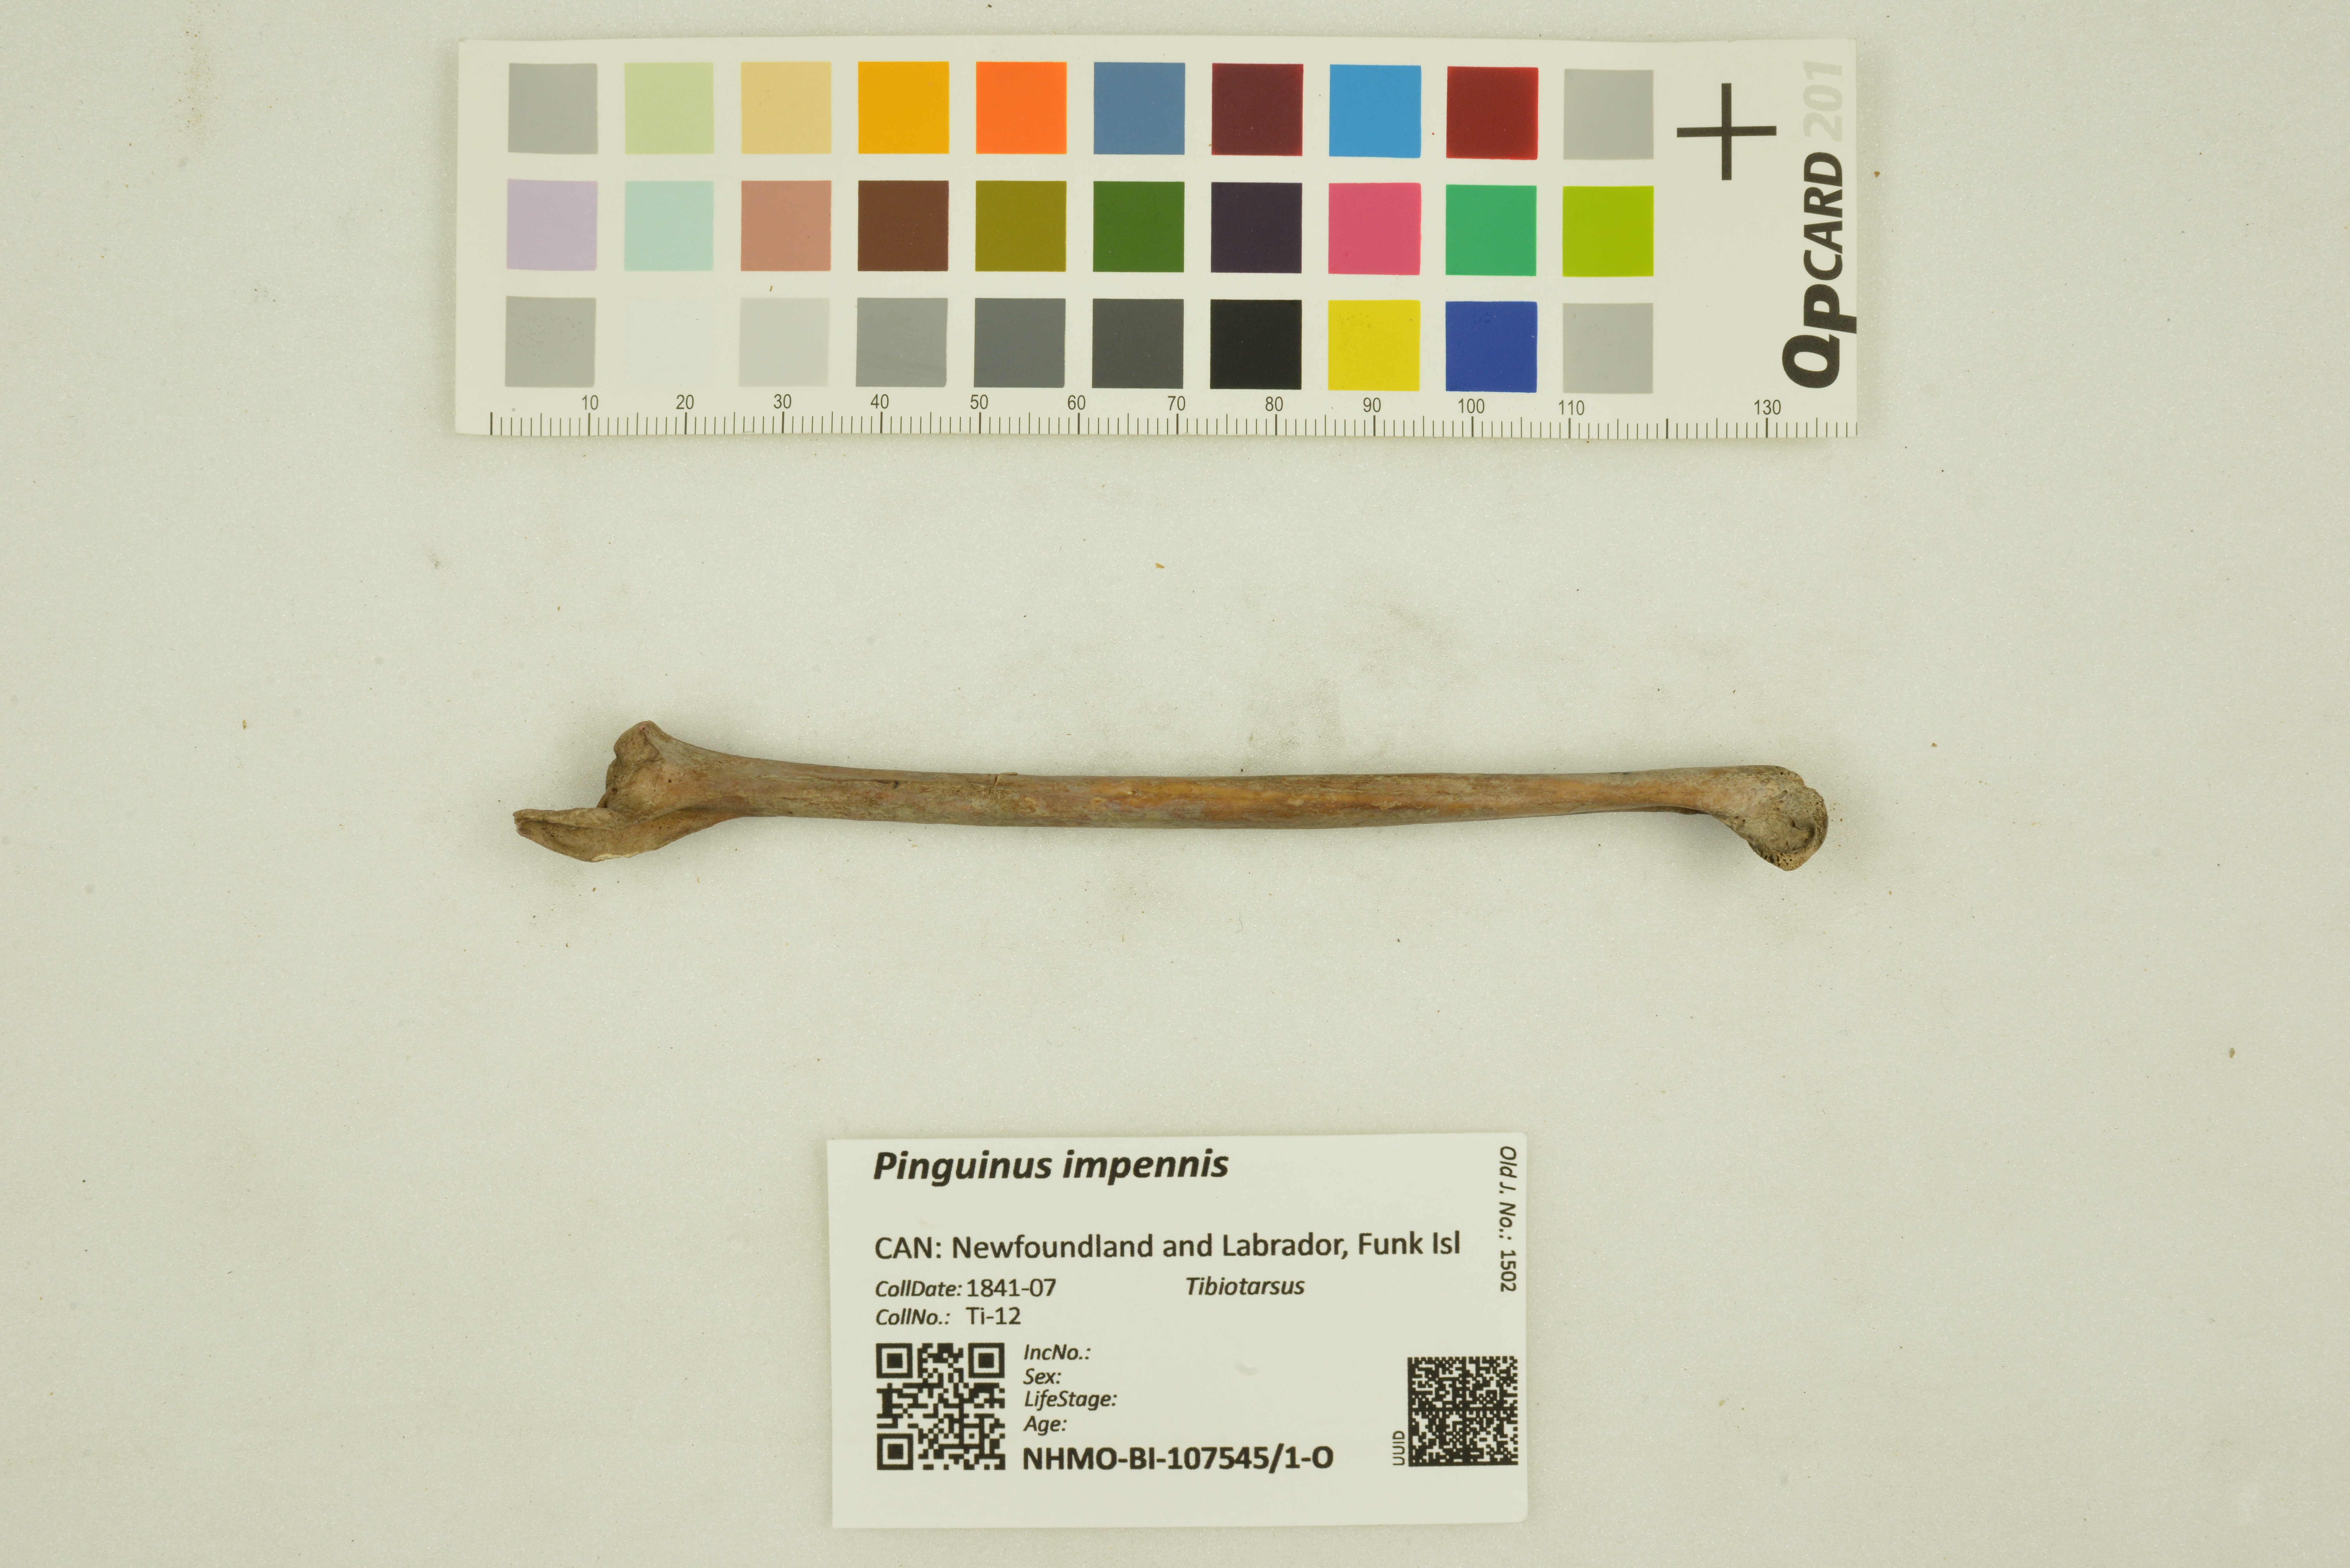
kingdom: Animalia
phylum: Chordata
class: Aves
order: Charadriiformes
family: Alcidae
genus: Pinguinus
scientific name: Pinguinus impennis
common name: Great auk
